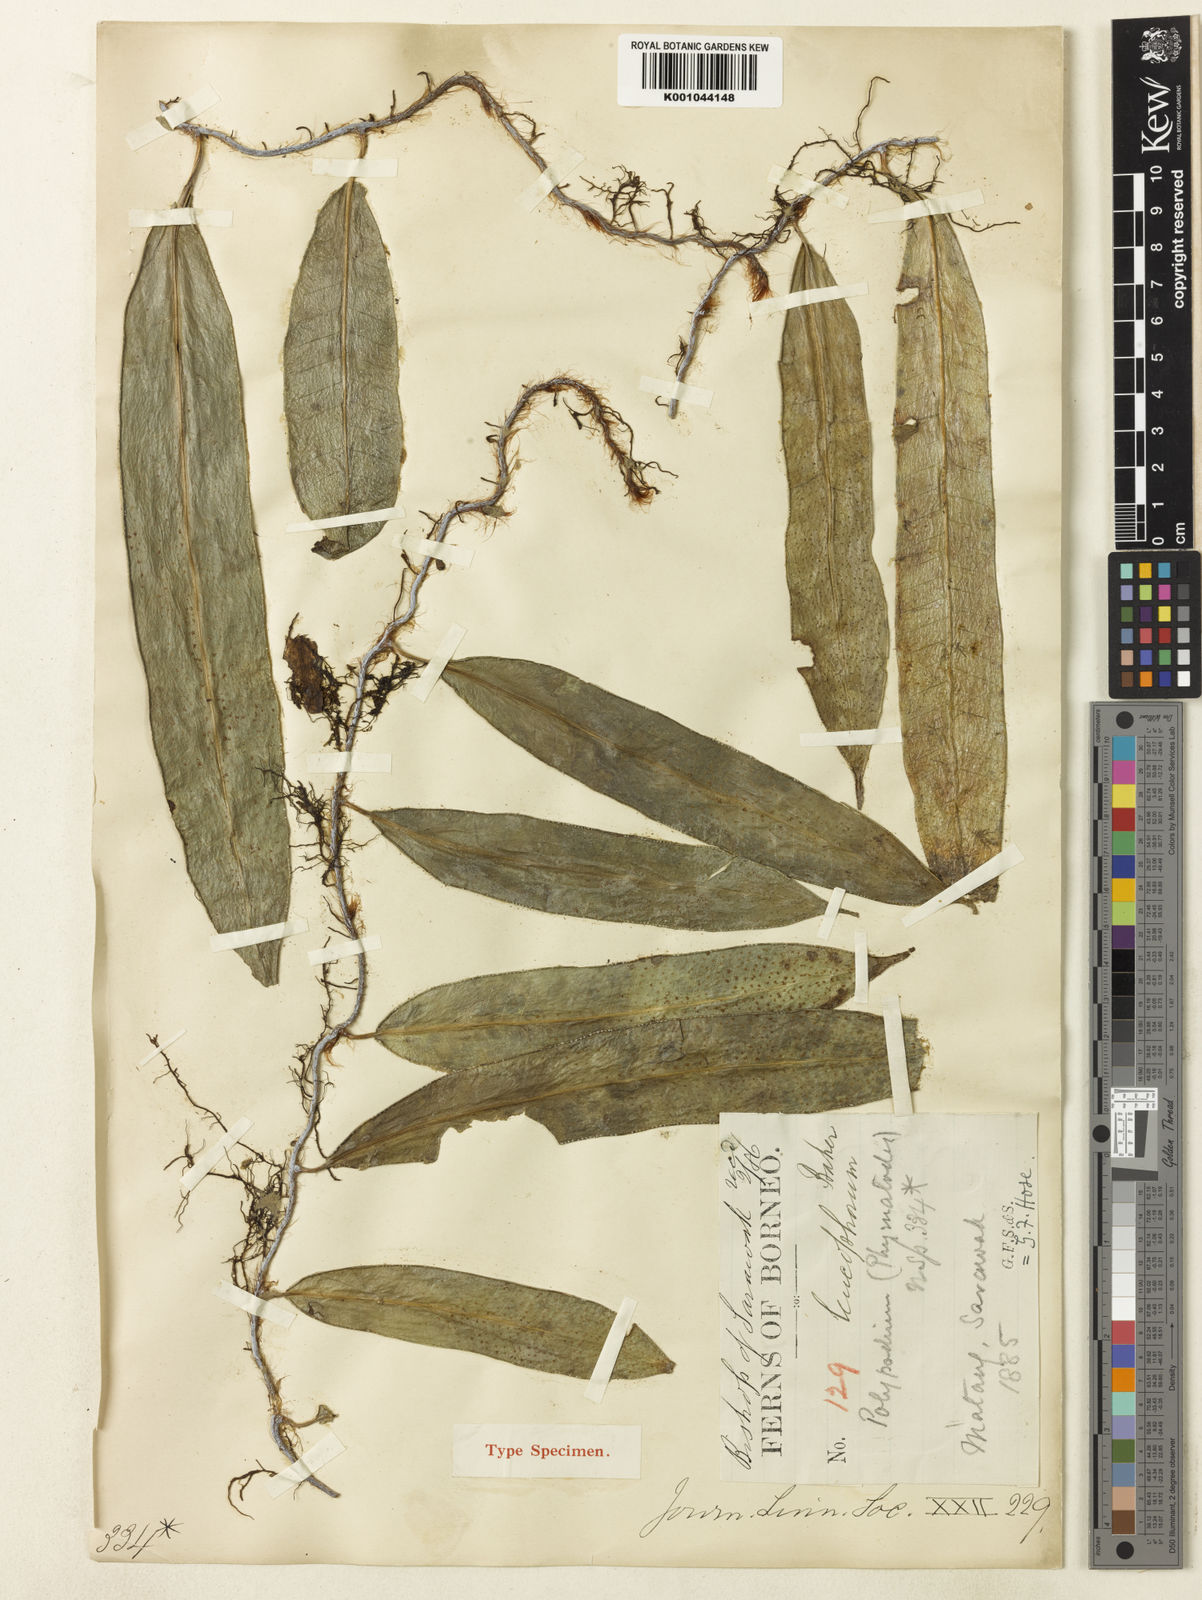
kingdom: Plantae
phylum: Tracheophyta
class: Polypodiopsida
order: Polypodiales
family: Polypodiaceae
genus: Selliguea
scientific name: Selliguea leucophora
